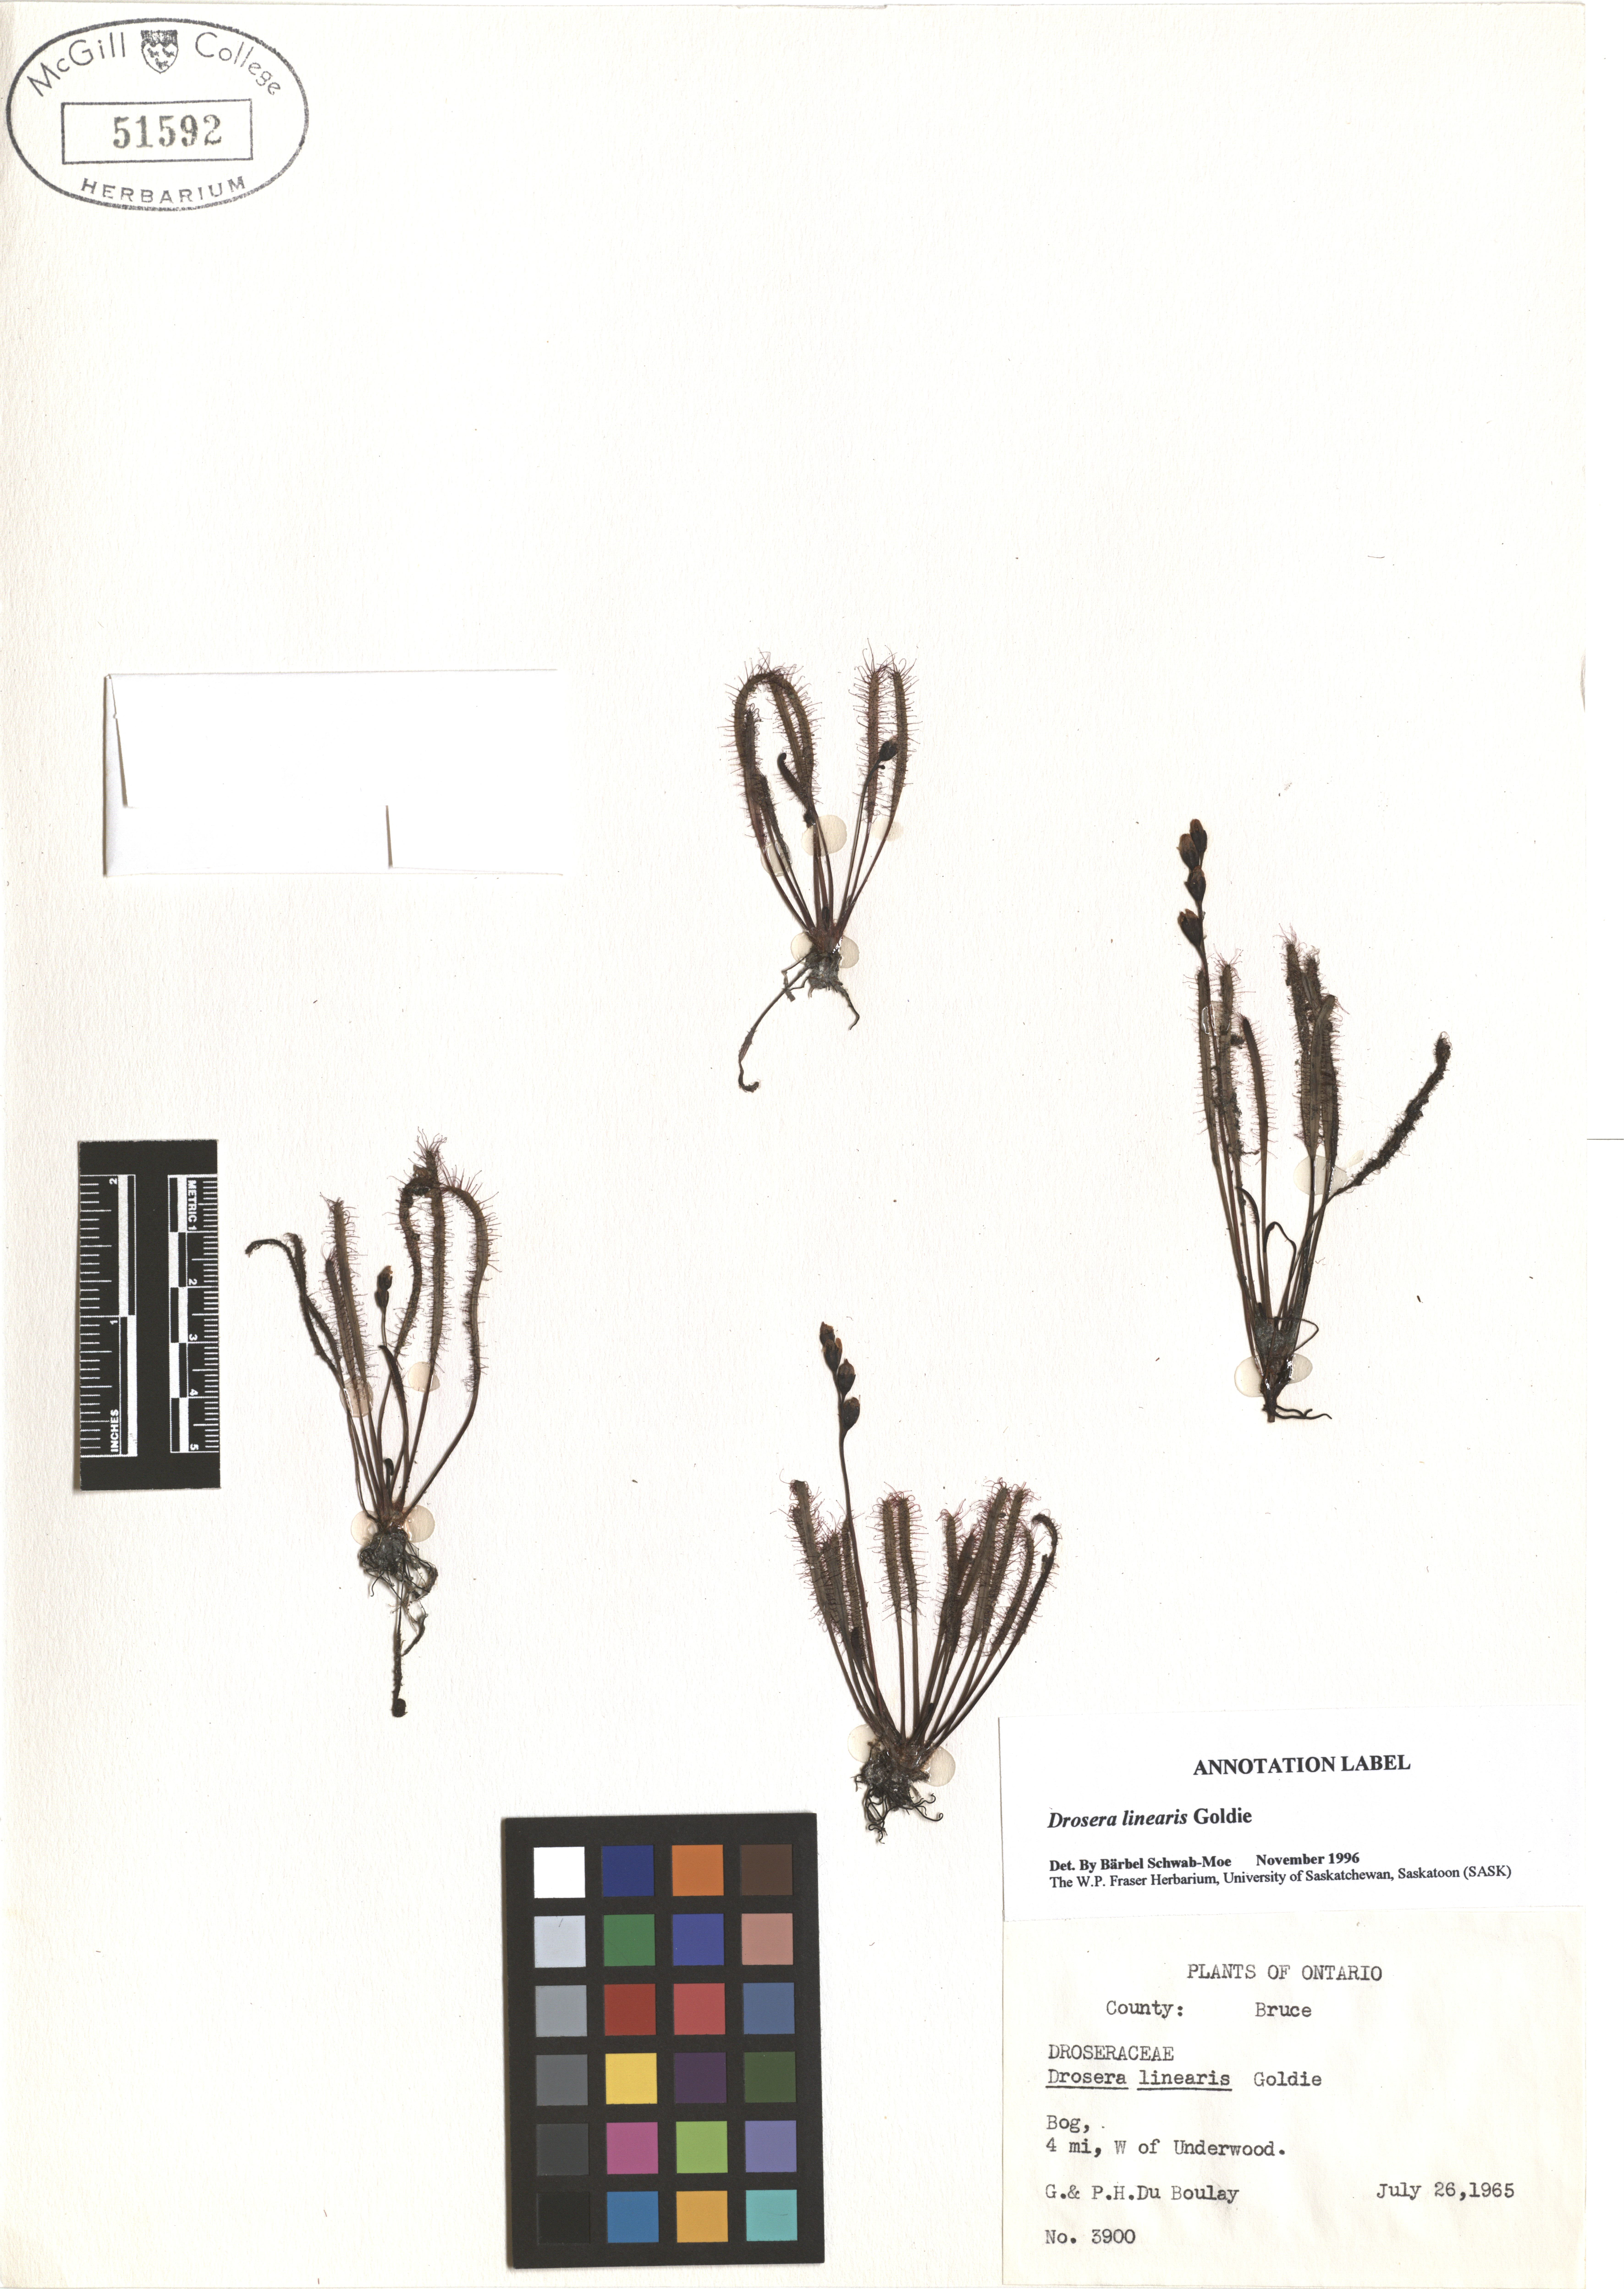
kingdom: Plantae
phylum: Tracheophyta
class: Magnoliopsida
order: Caryophyllales
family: Droseraceae
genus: Drosera
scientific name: Drosera linearis
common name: Linear-leaved sundew
